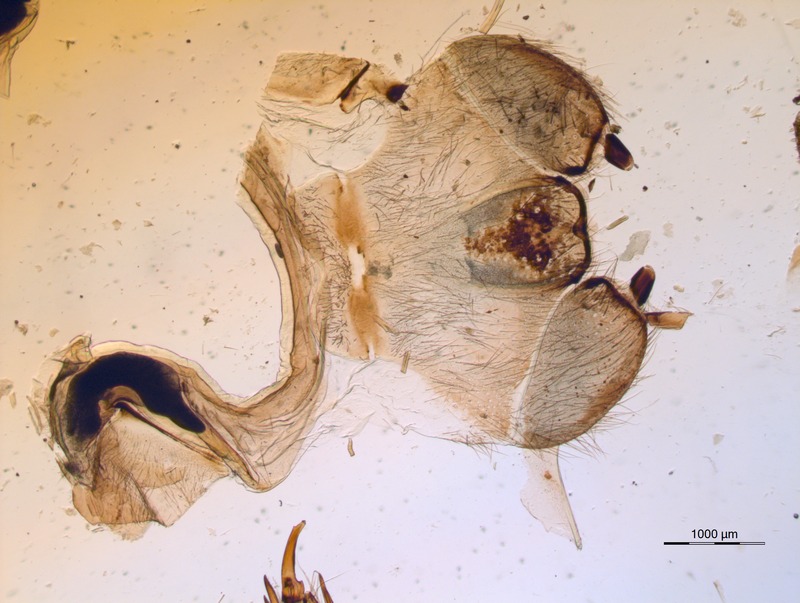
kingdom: Animalia
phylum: Arthropoda
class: Diplopoda
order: Sphaerotheriida
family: Zephroniidae
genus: Sphaeropoeus
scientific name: Sphaeropoeus
